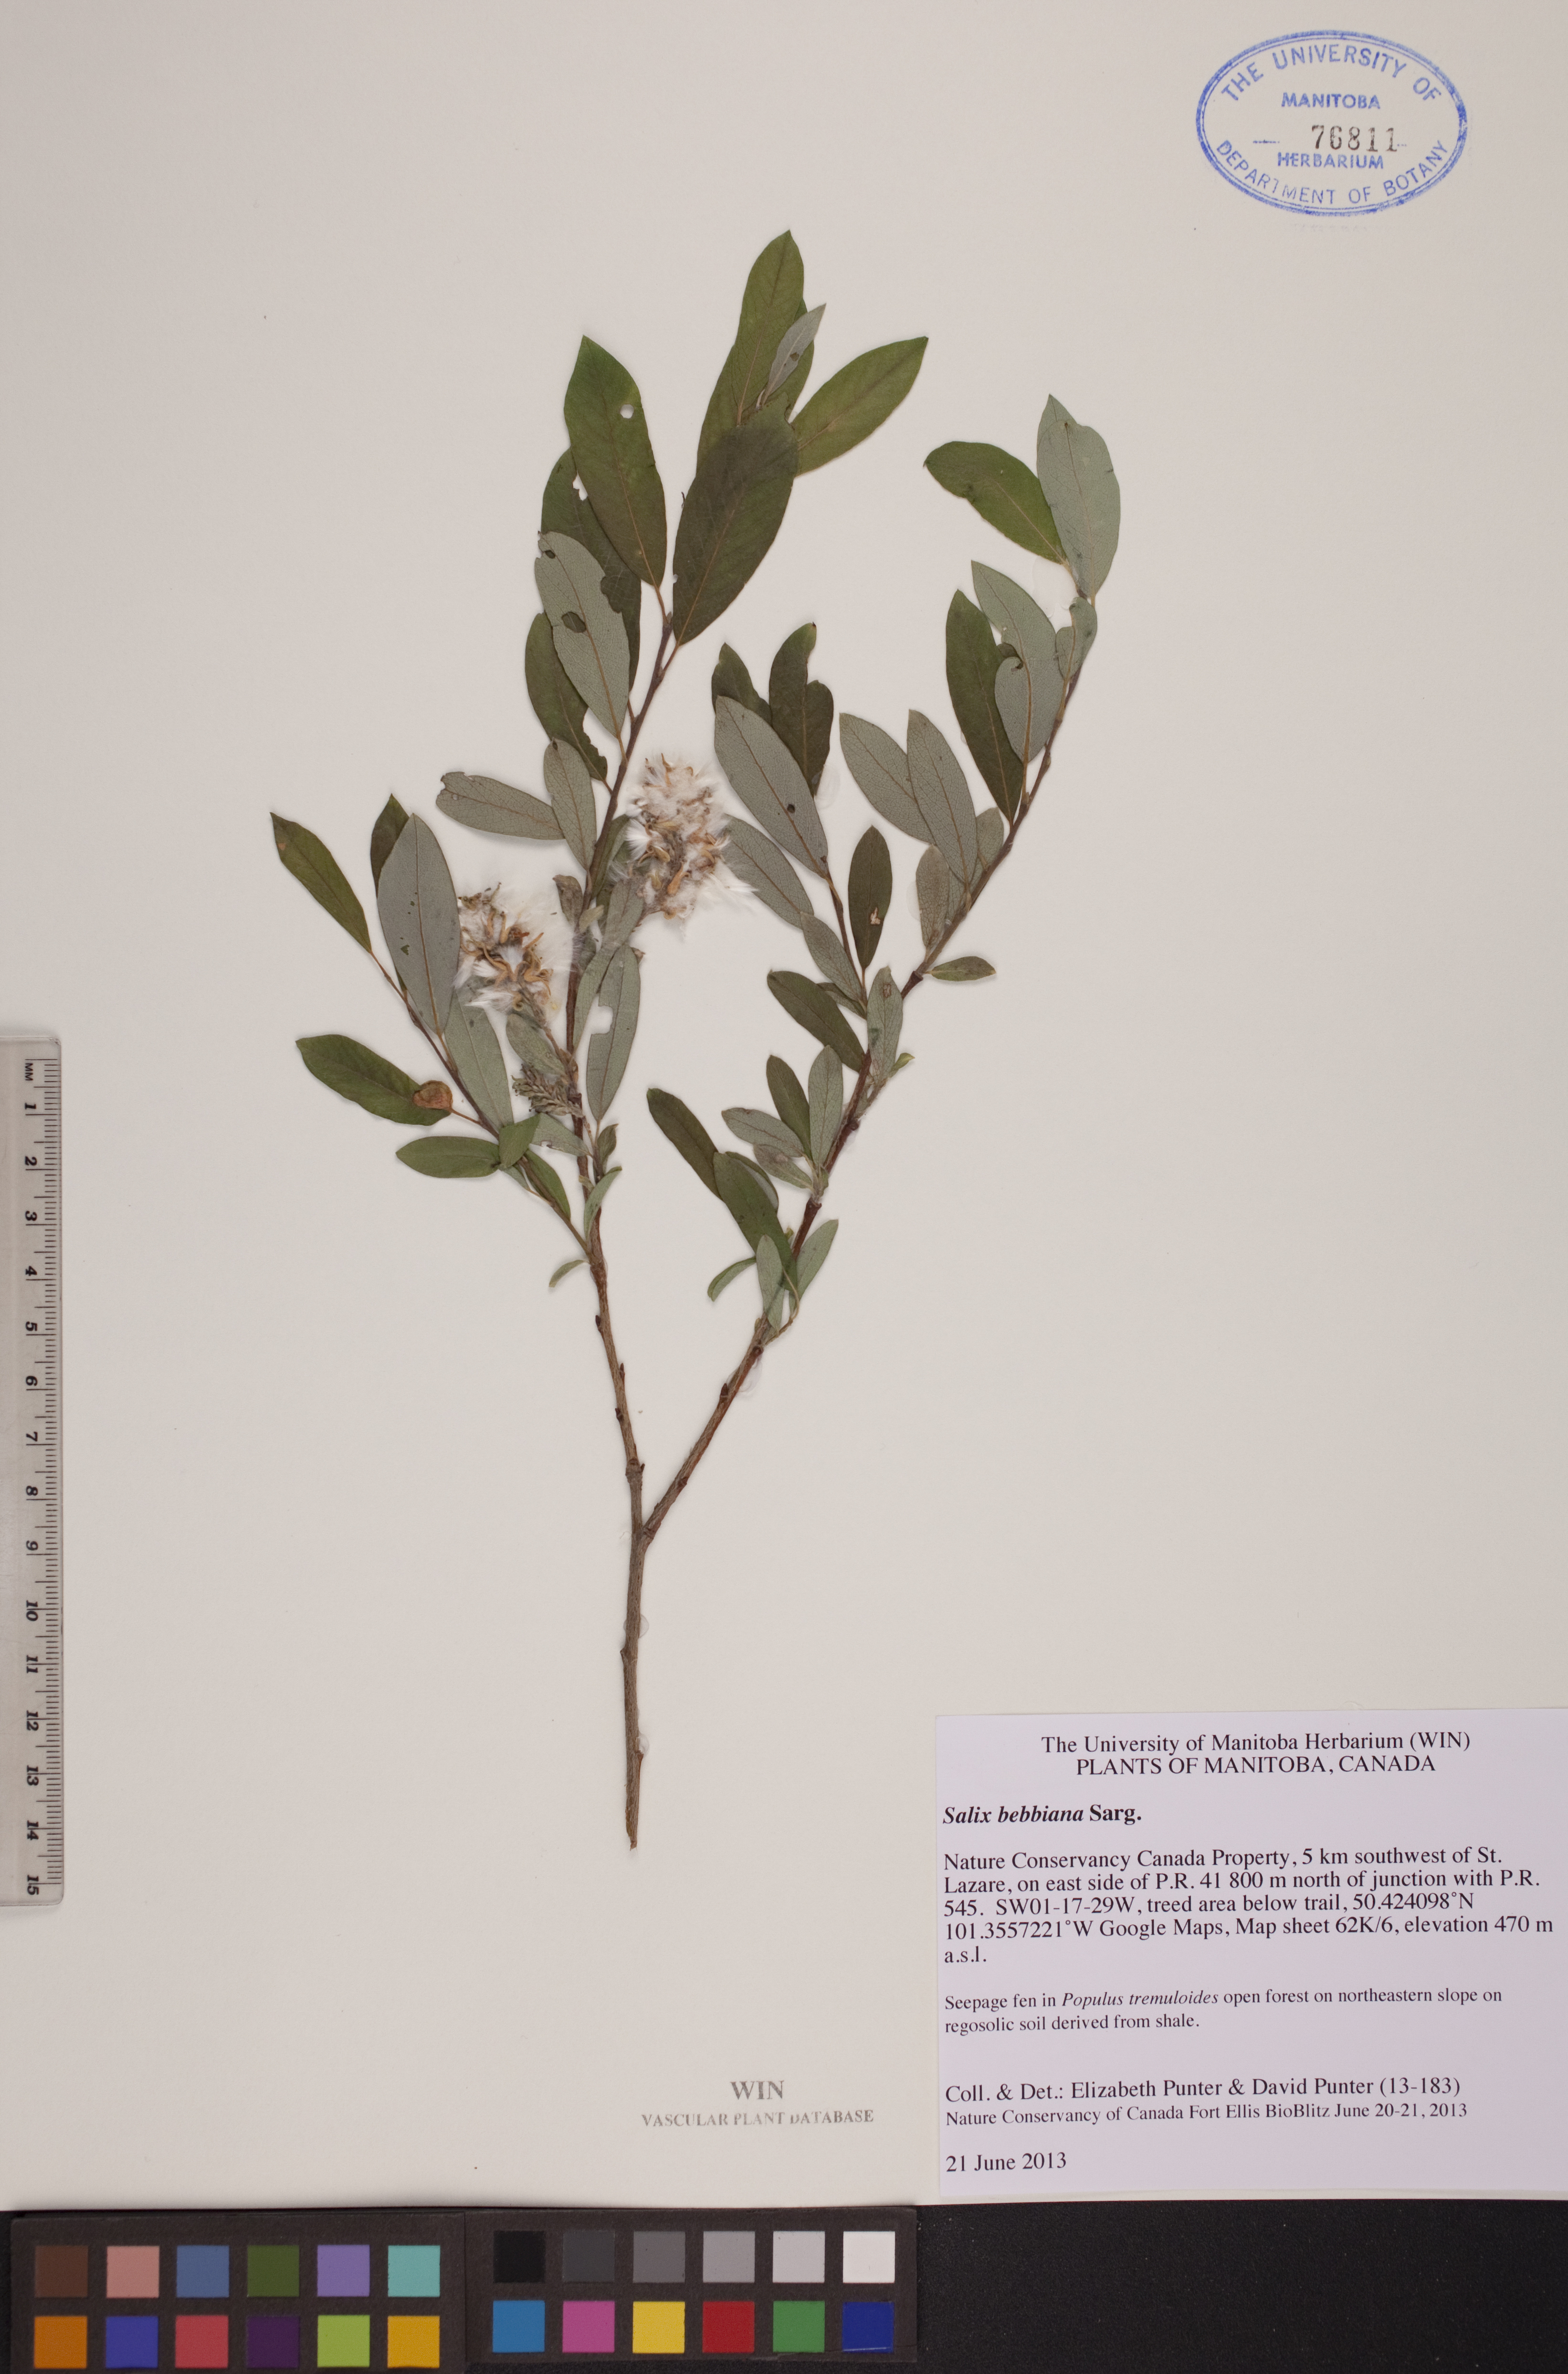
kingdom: Plantae
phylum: Tracheophyta
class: Magnoliopsida
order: Malpighiales
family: Salicaceae
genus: Salix
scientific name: Salix bebbiana
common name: Bebb's willow
